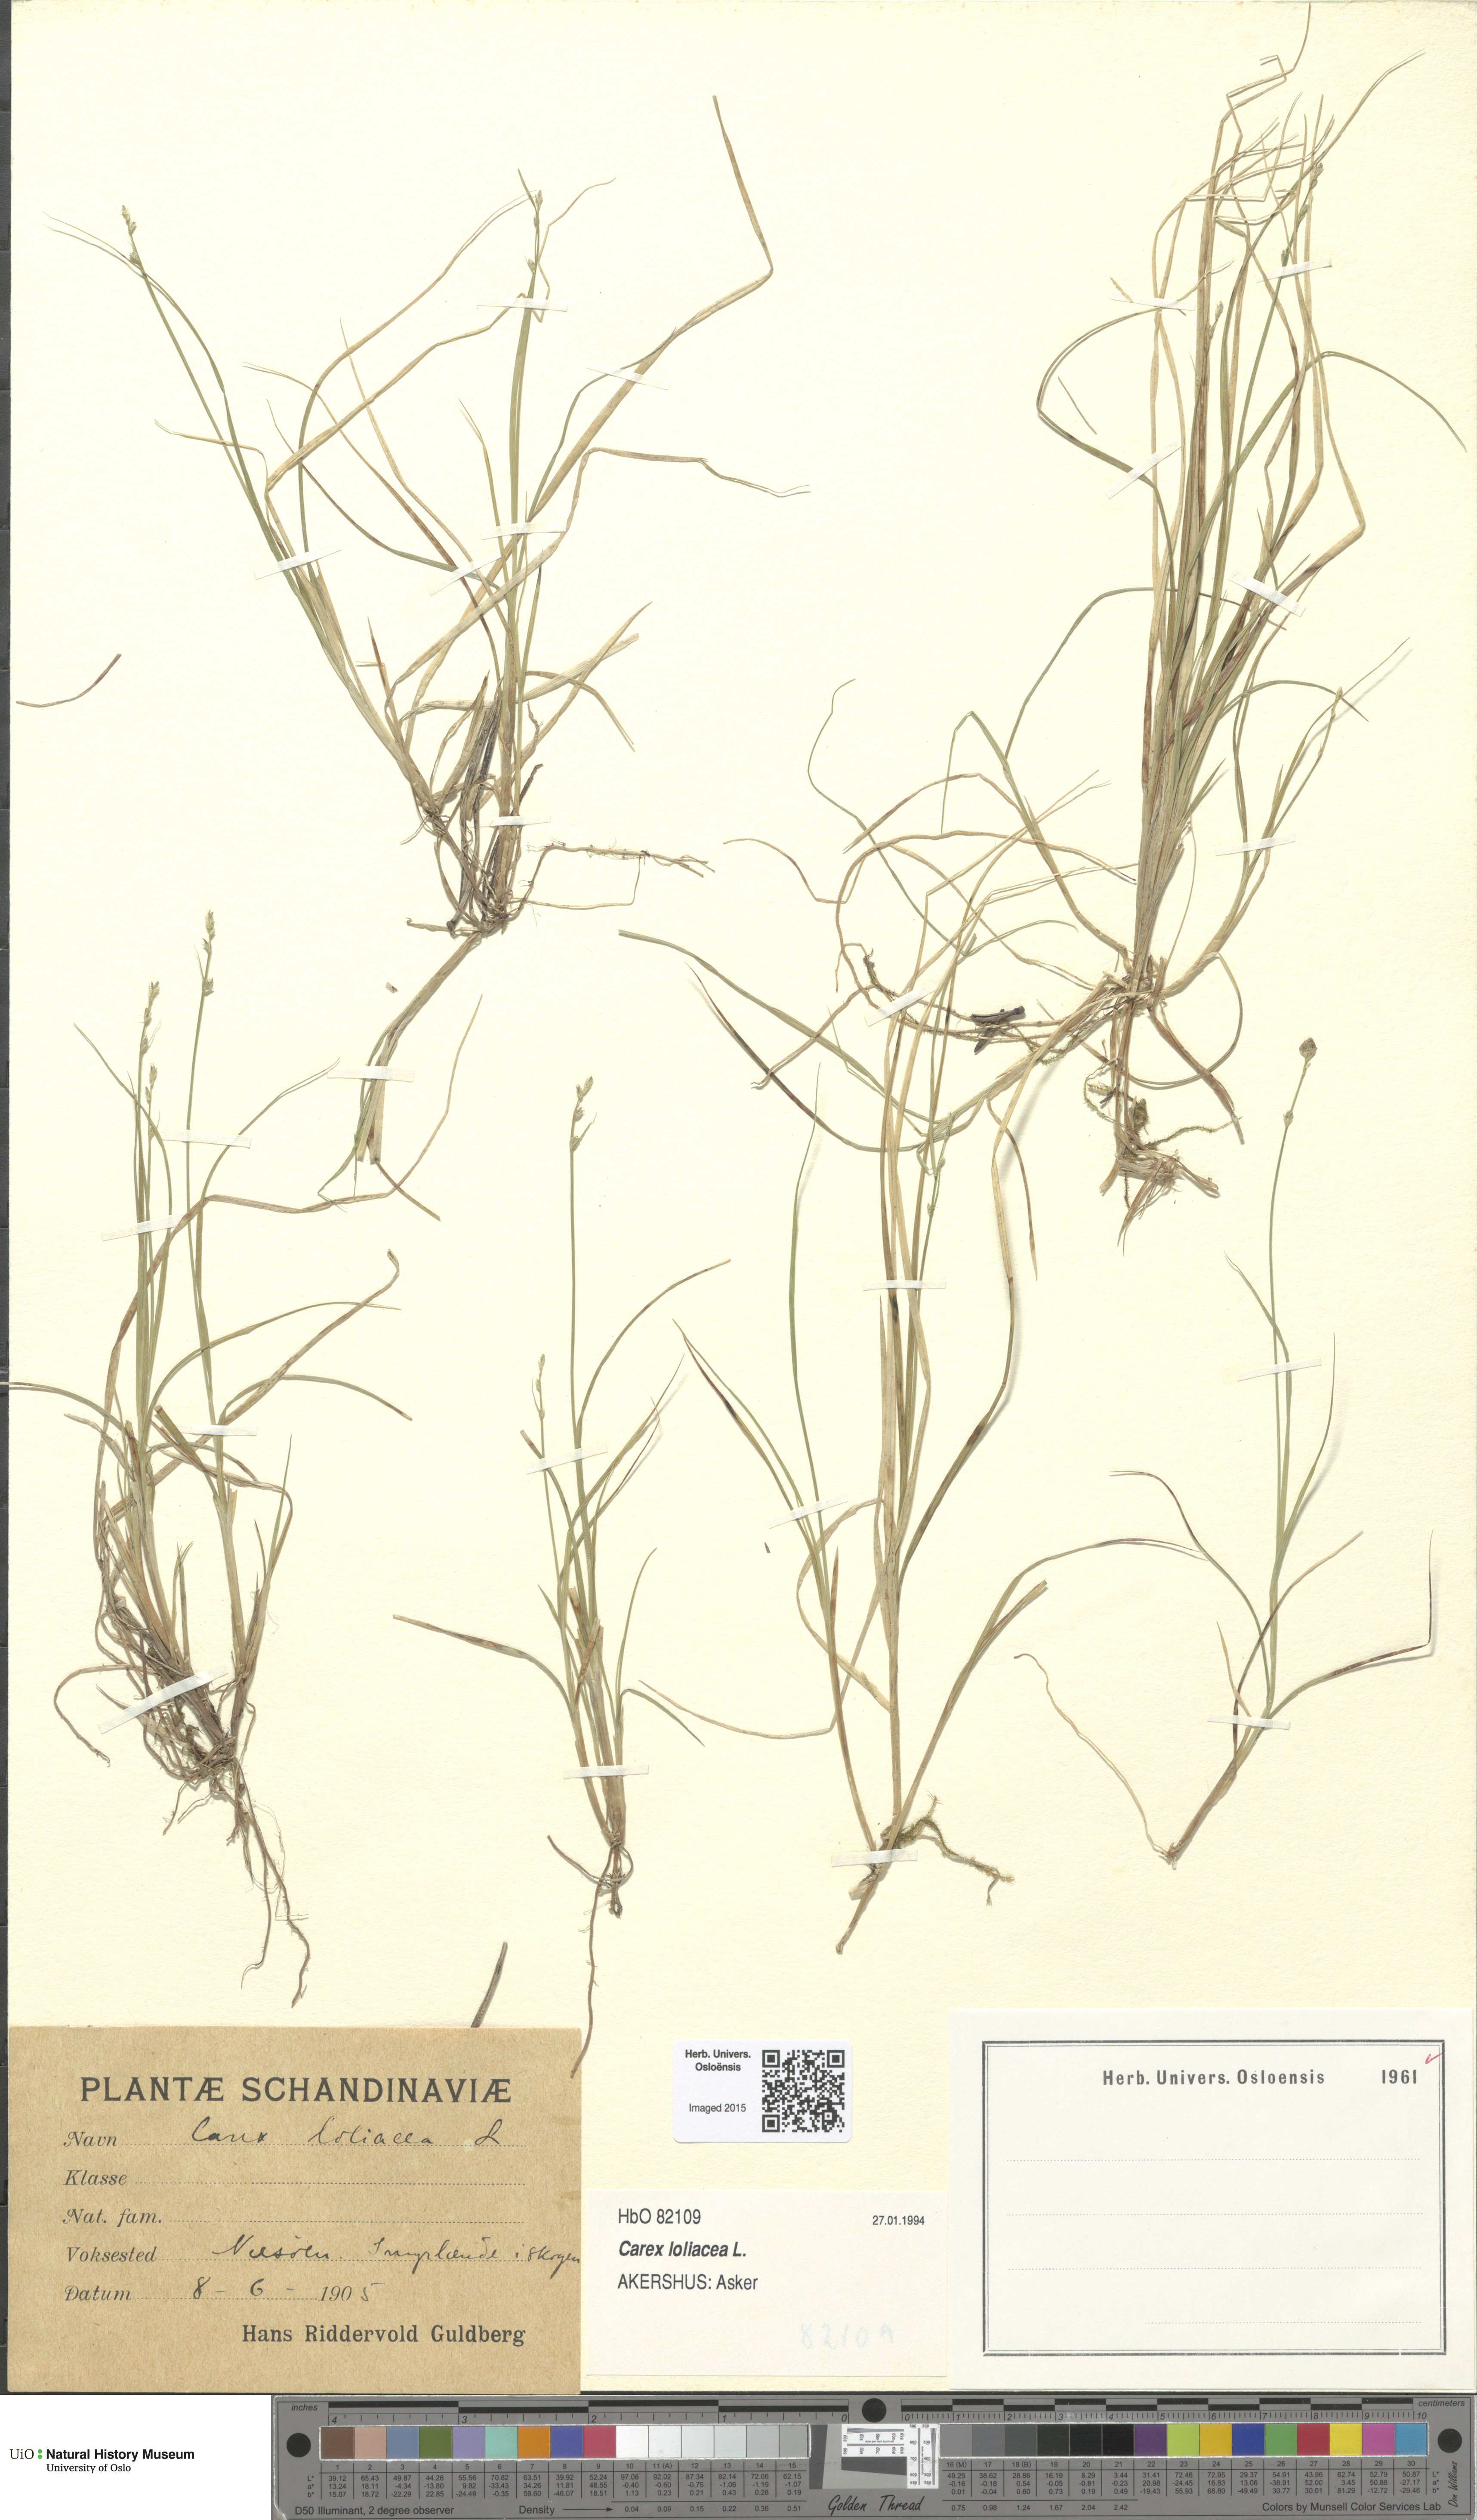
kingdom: Plantae
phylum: Tracheophyta
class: Liliopsida
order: Poales
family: Cyperaceae
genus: Carex
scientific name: Carex loliacea
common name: Ryegrass sedge
